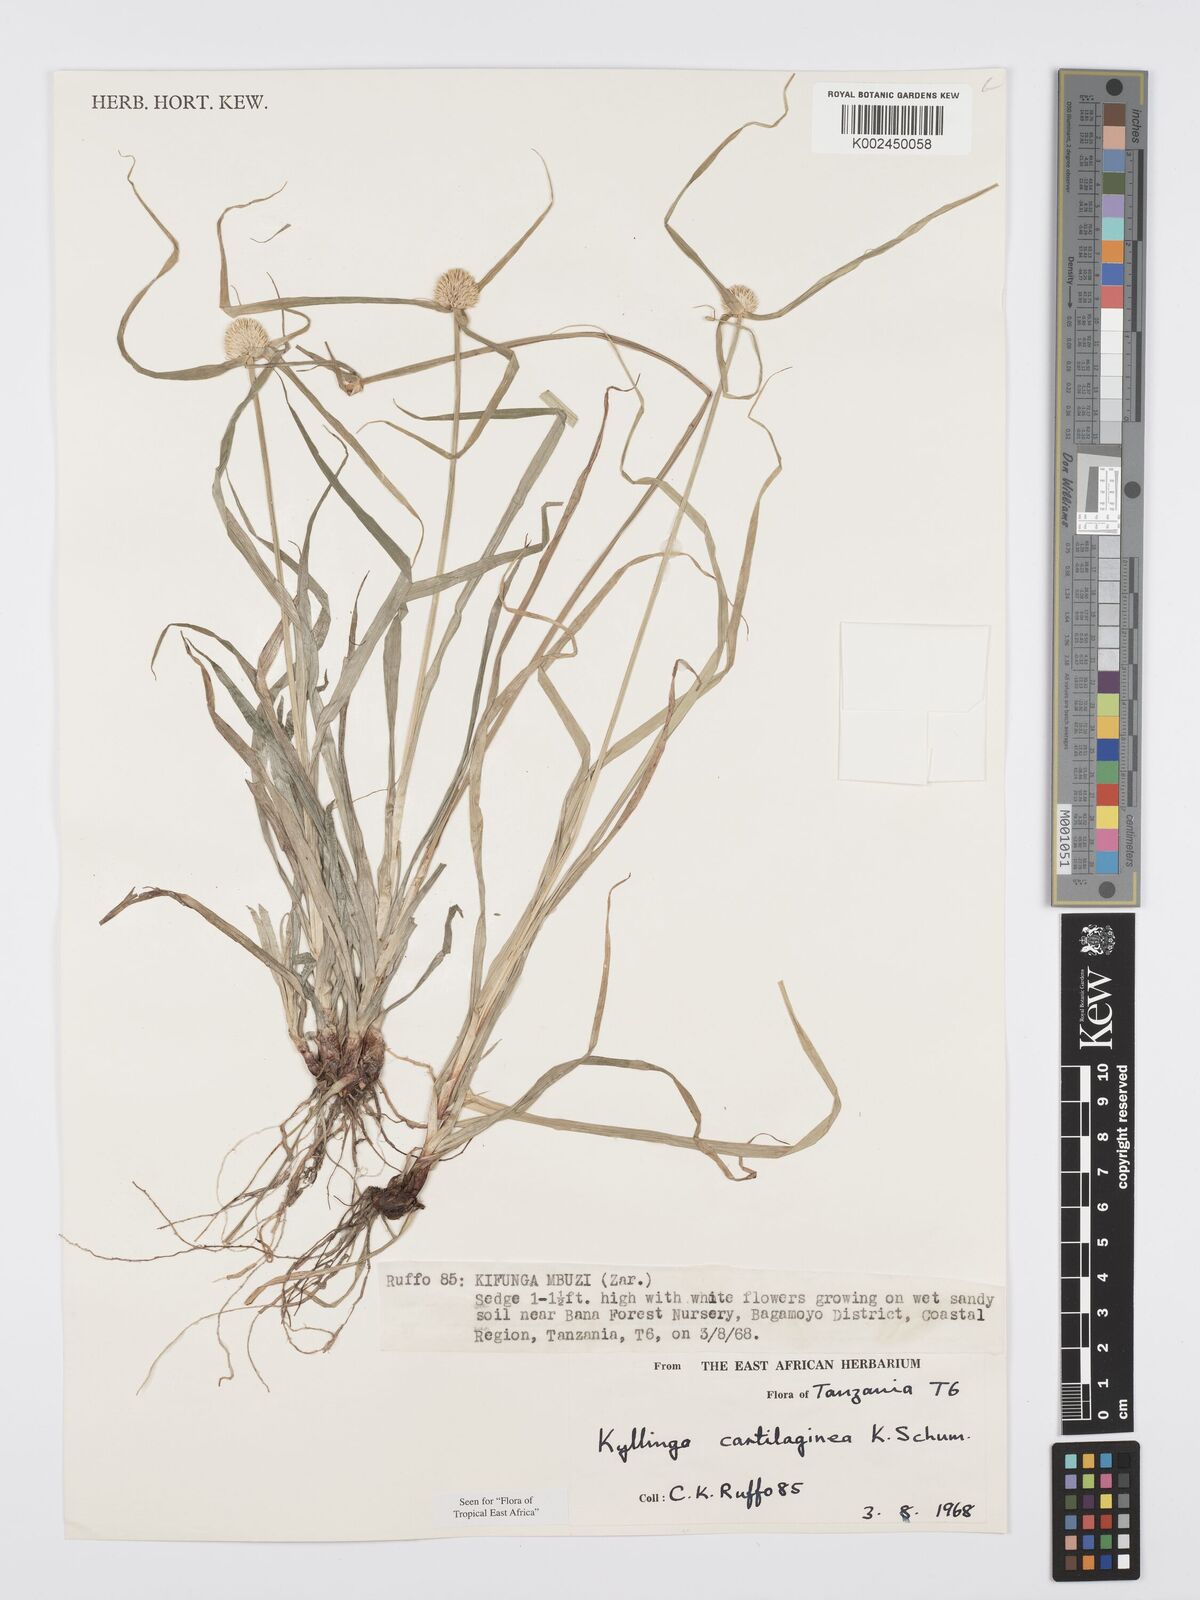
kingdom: Plantae
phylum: Tracheophyta
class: Liliopsida
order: Poales
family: Cyperaceae
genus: Cyperus
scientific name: Cyperus cartilagineus
